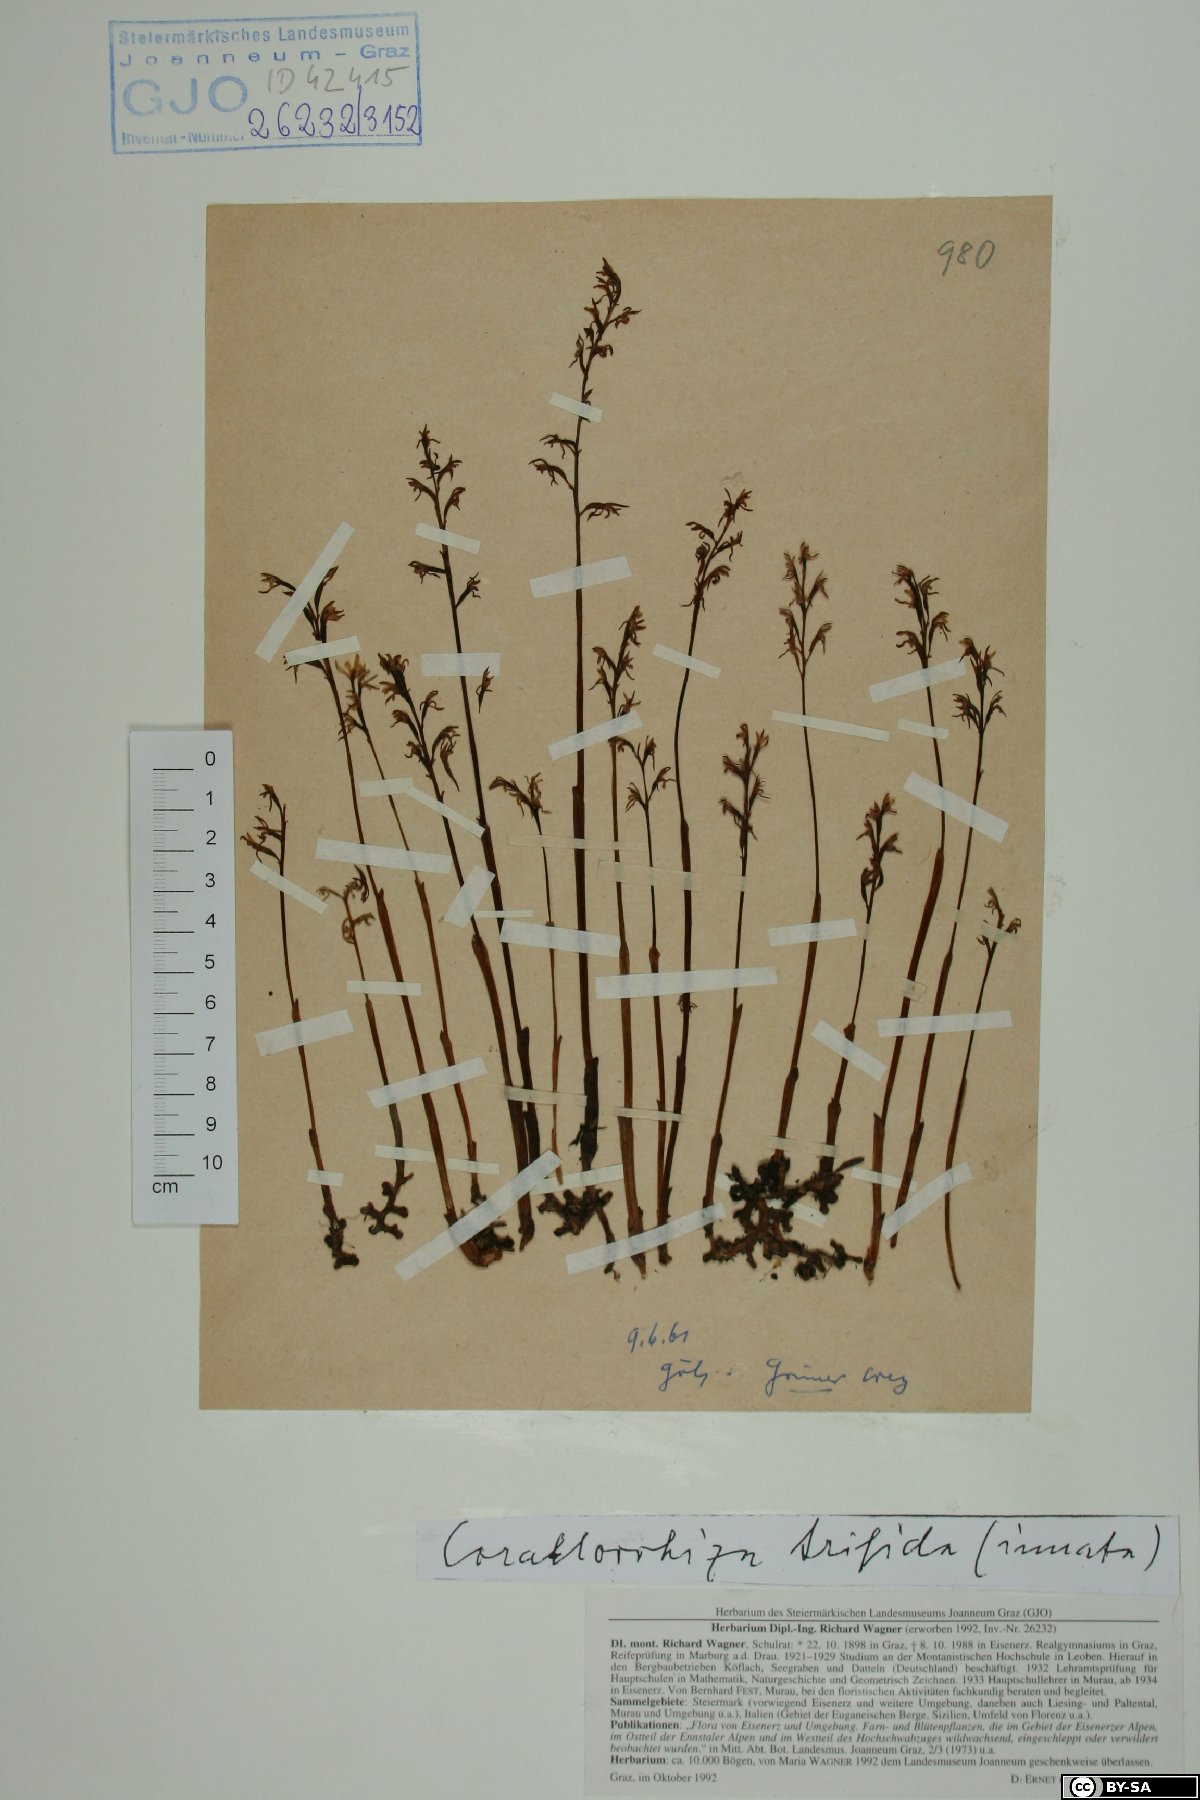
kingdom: Plantae
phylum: Tracheophyta
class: Liliopsida
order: Asparagales
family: Orchidaceae
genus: Corallorhiza
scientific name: Corallorhiza trifida
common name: Yellow coralroot
